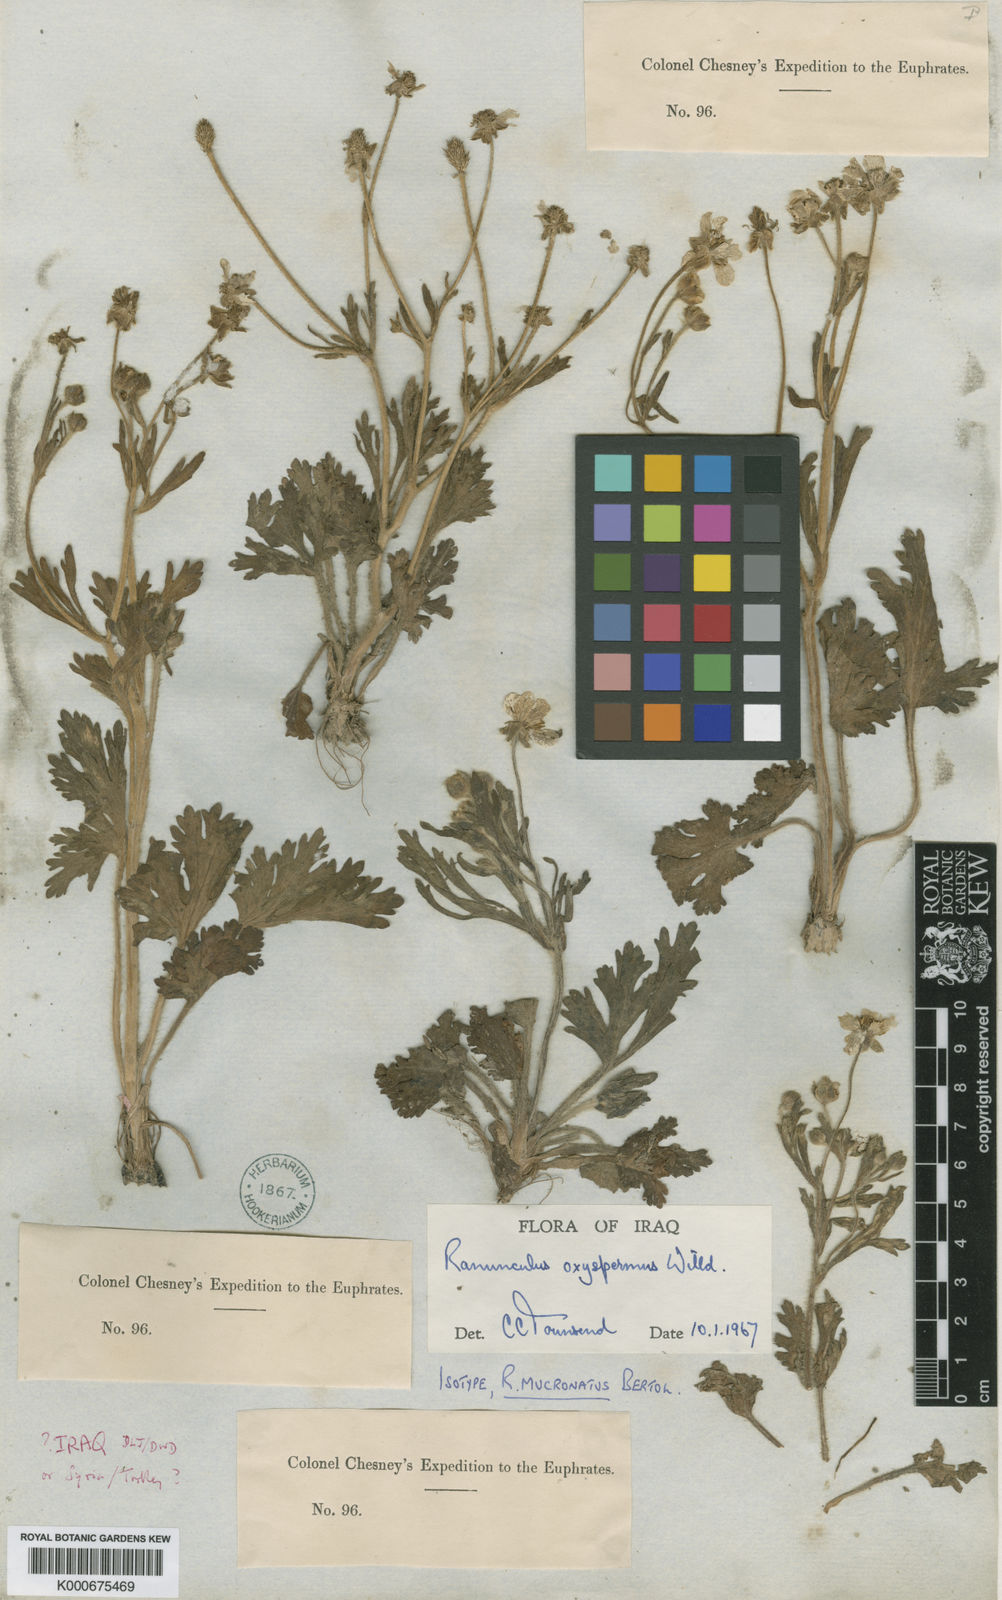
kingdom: Plantae
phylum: Tracheophyta
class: Magnoliopsida
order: Ranunculales
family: Ranunculaceae
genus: Ranunculus
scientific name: Ranunculus oxyspermus
